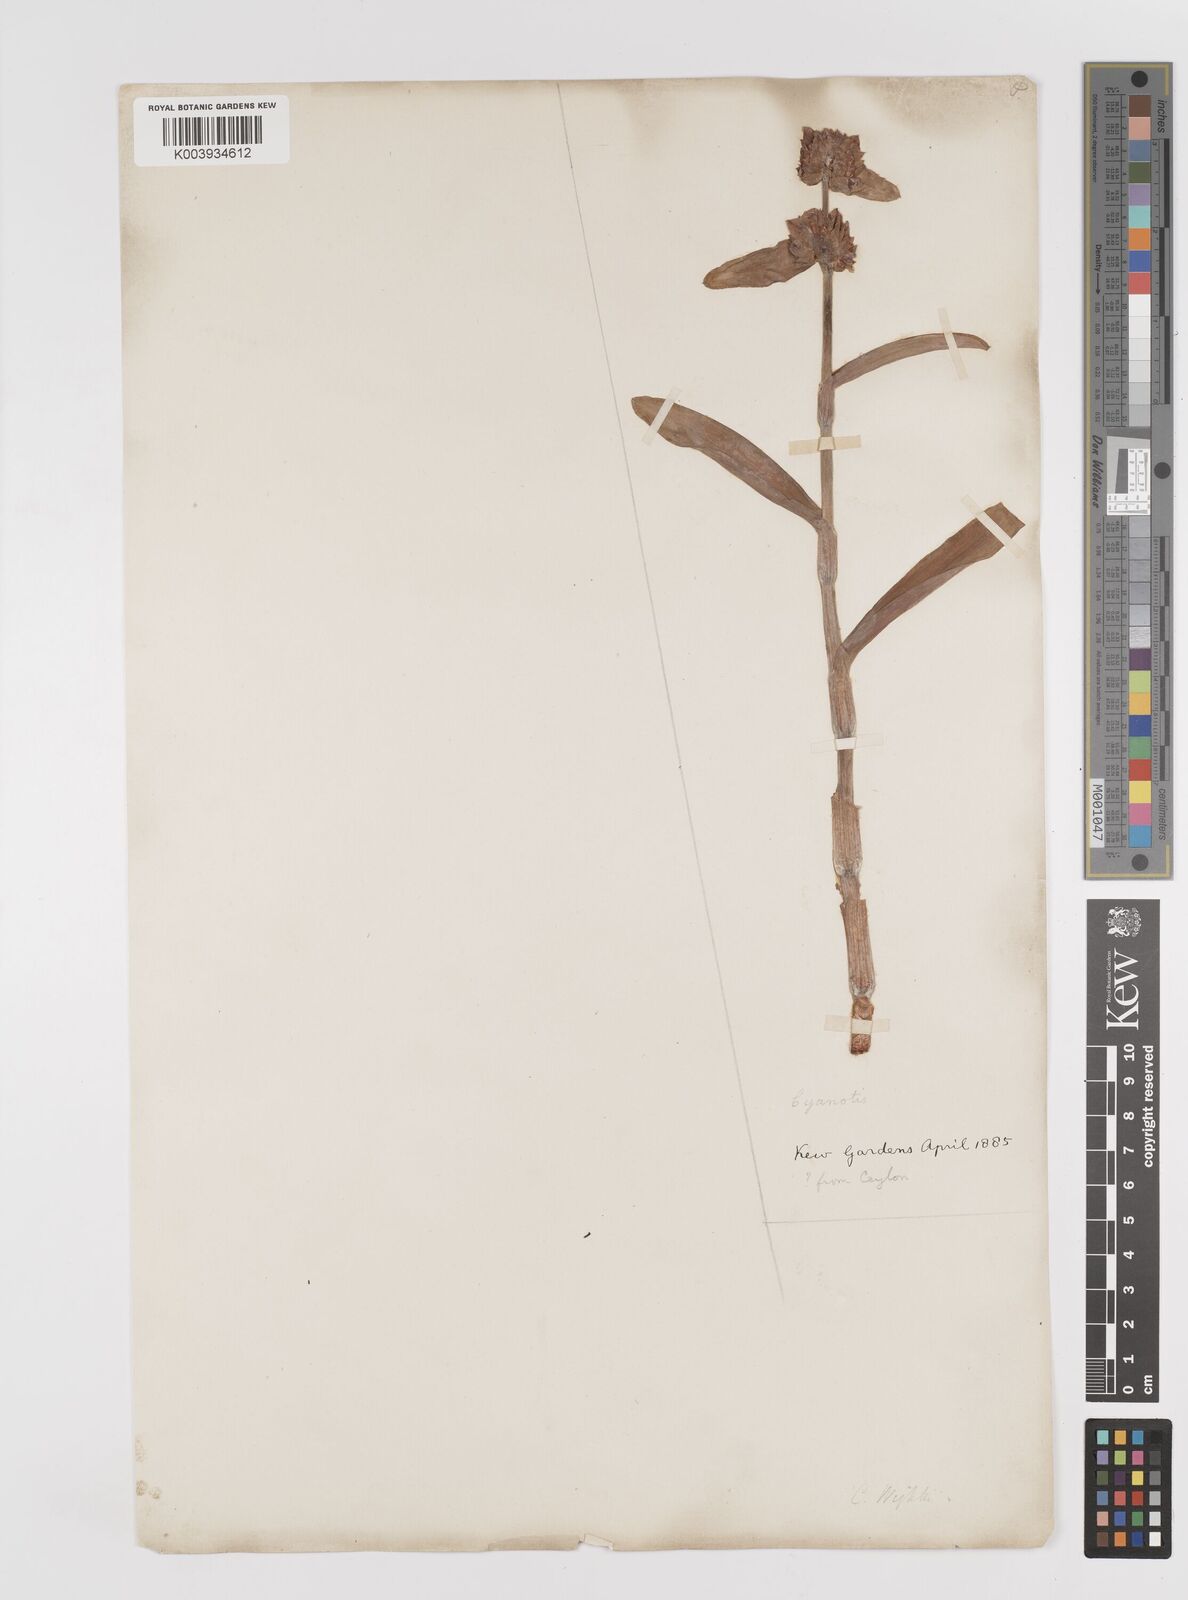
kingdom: Plantae
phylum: Tracheophyta
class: Liliopsida
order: Commelinales
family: Commelinaceae
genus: Cyanotis
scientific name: Cyanotis arachnoidea
